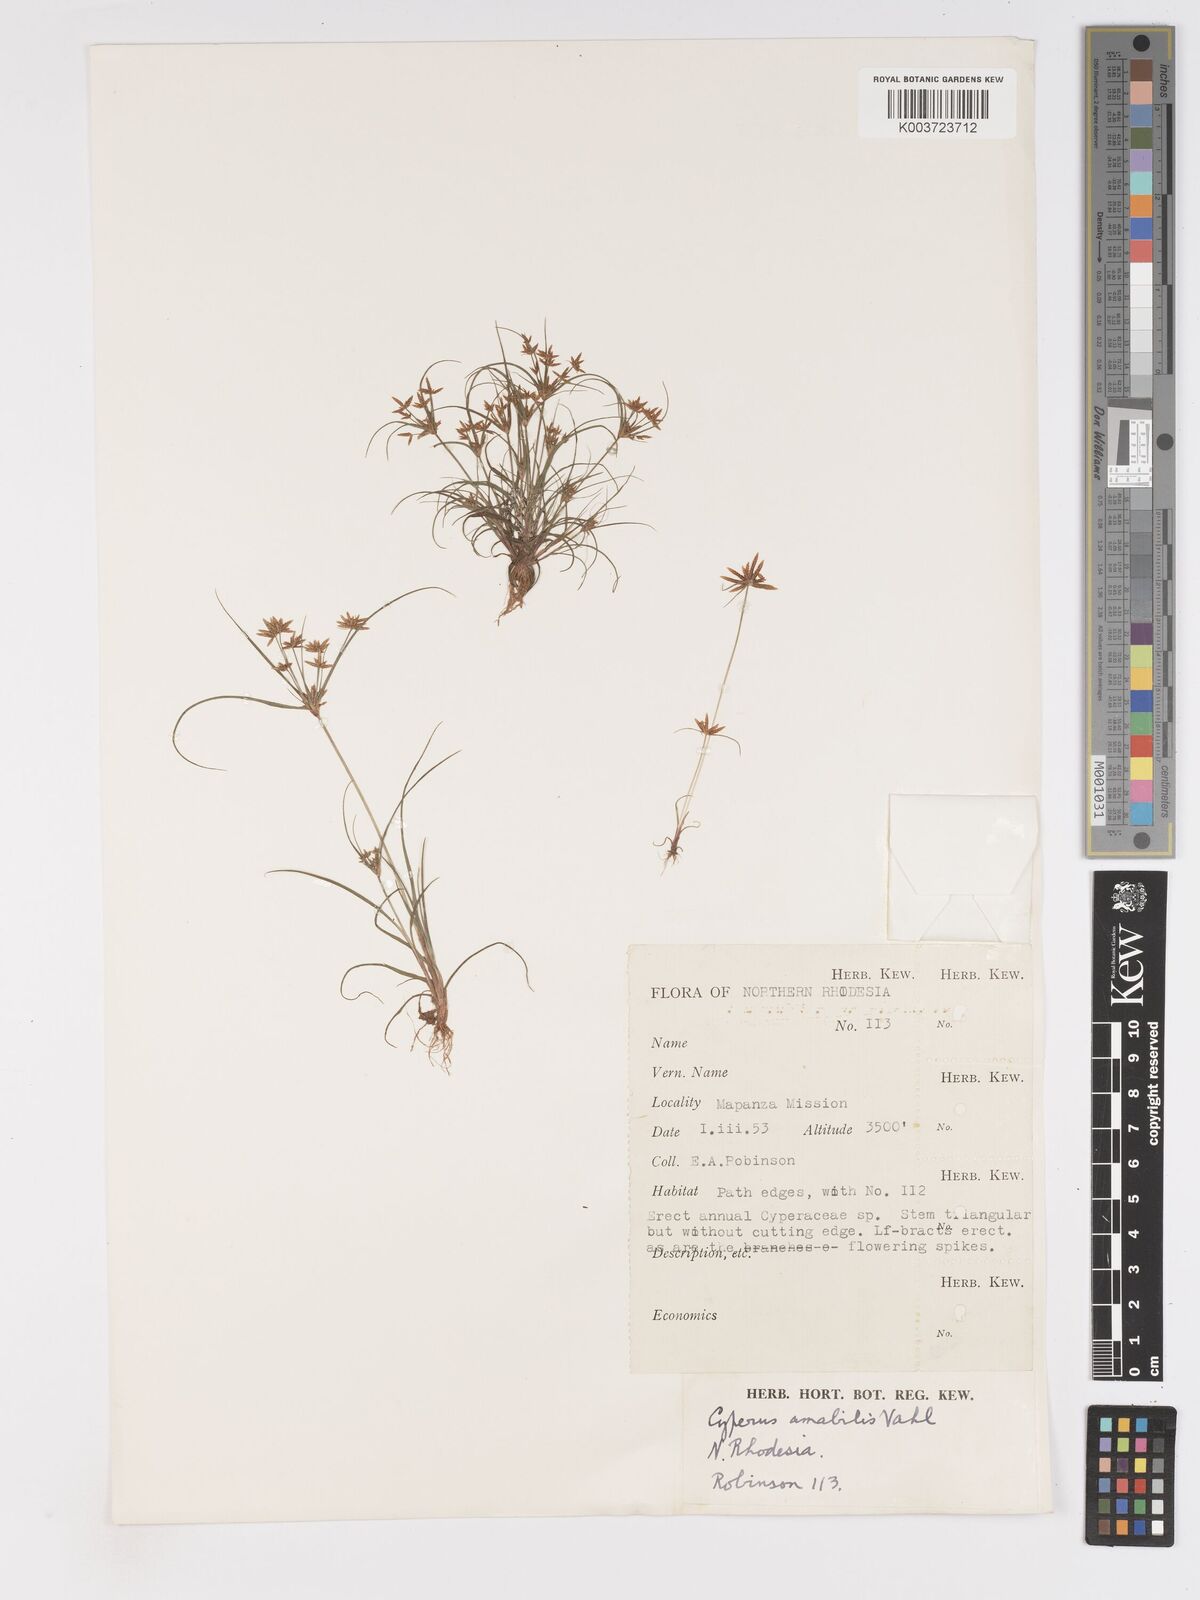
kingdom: Plantae
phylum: Tracheophyta
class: Liliopsida
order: Poales
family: Cyperaceae
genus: Cyperus
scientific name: Cyperus amabilis
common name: Foothill flat sedge
